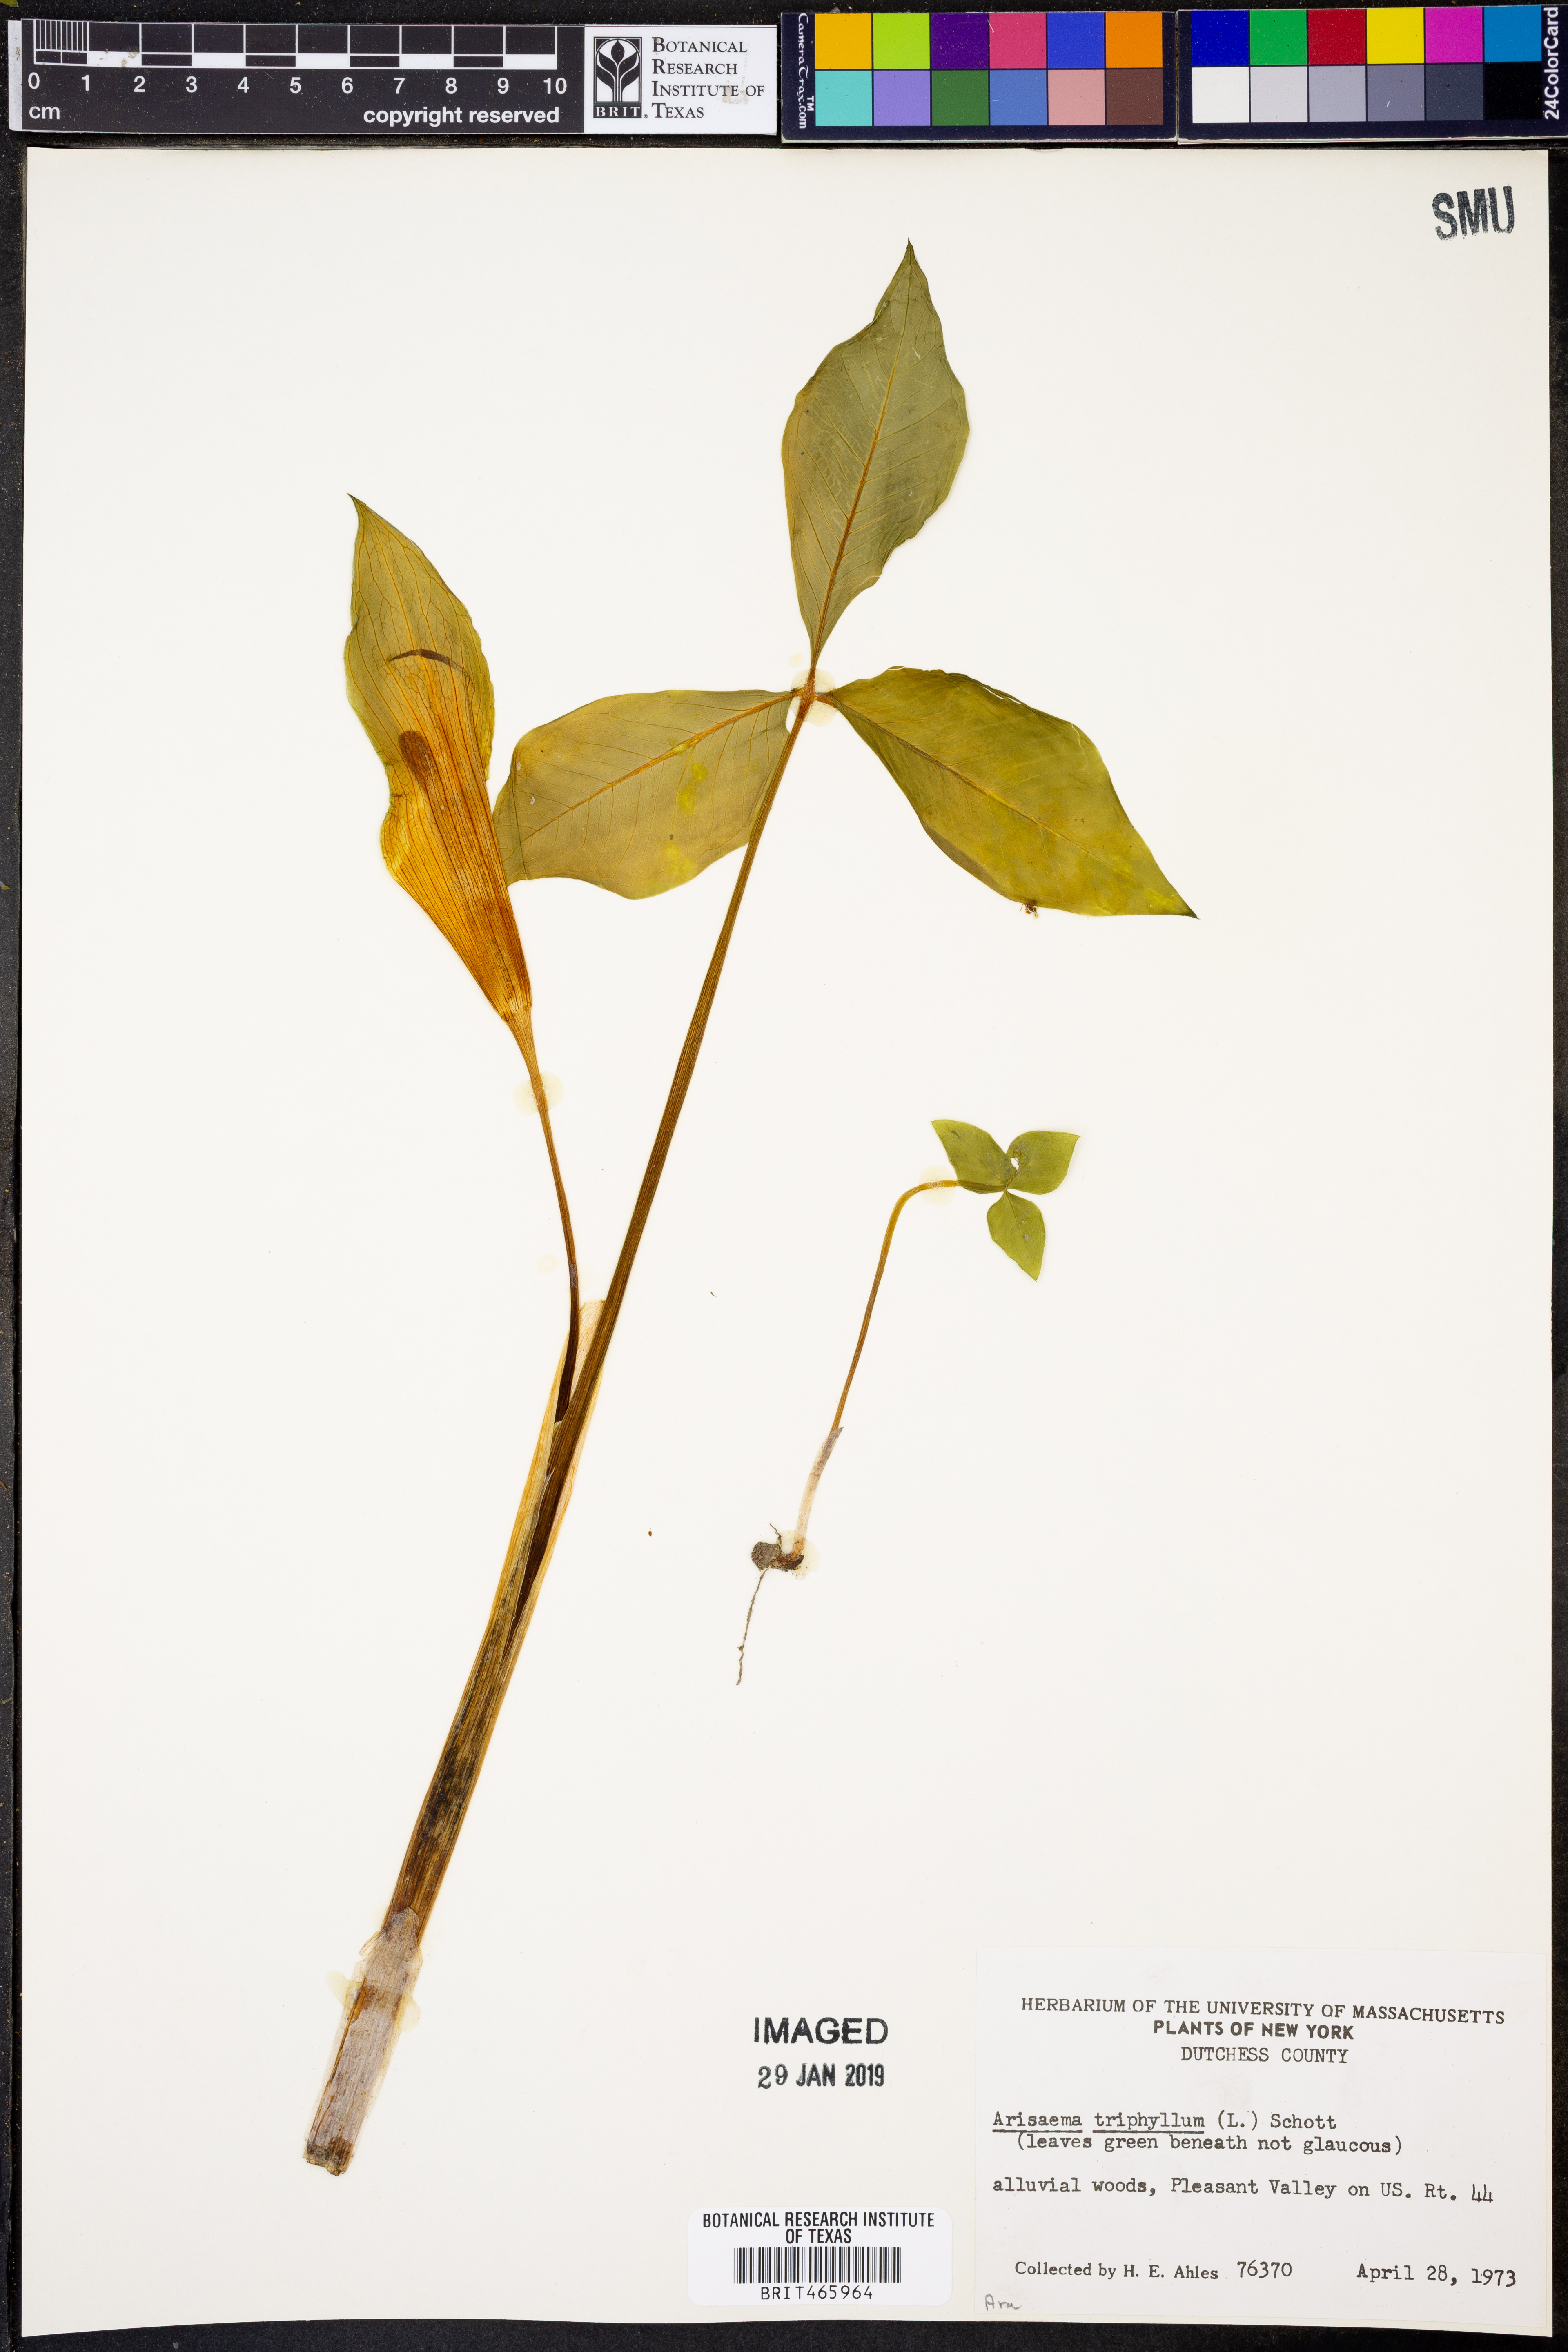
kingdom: Plantae
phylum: Tracheophyta
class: Liliopsida
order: Alismatales
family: Araceae
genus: Arisaema
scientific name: Arisaema triphyllum
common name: Jack-in-the-pulpit
